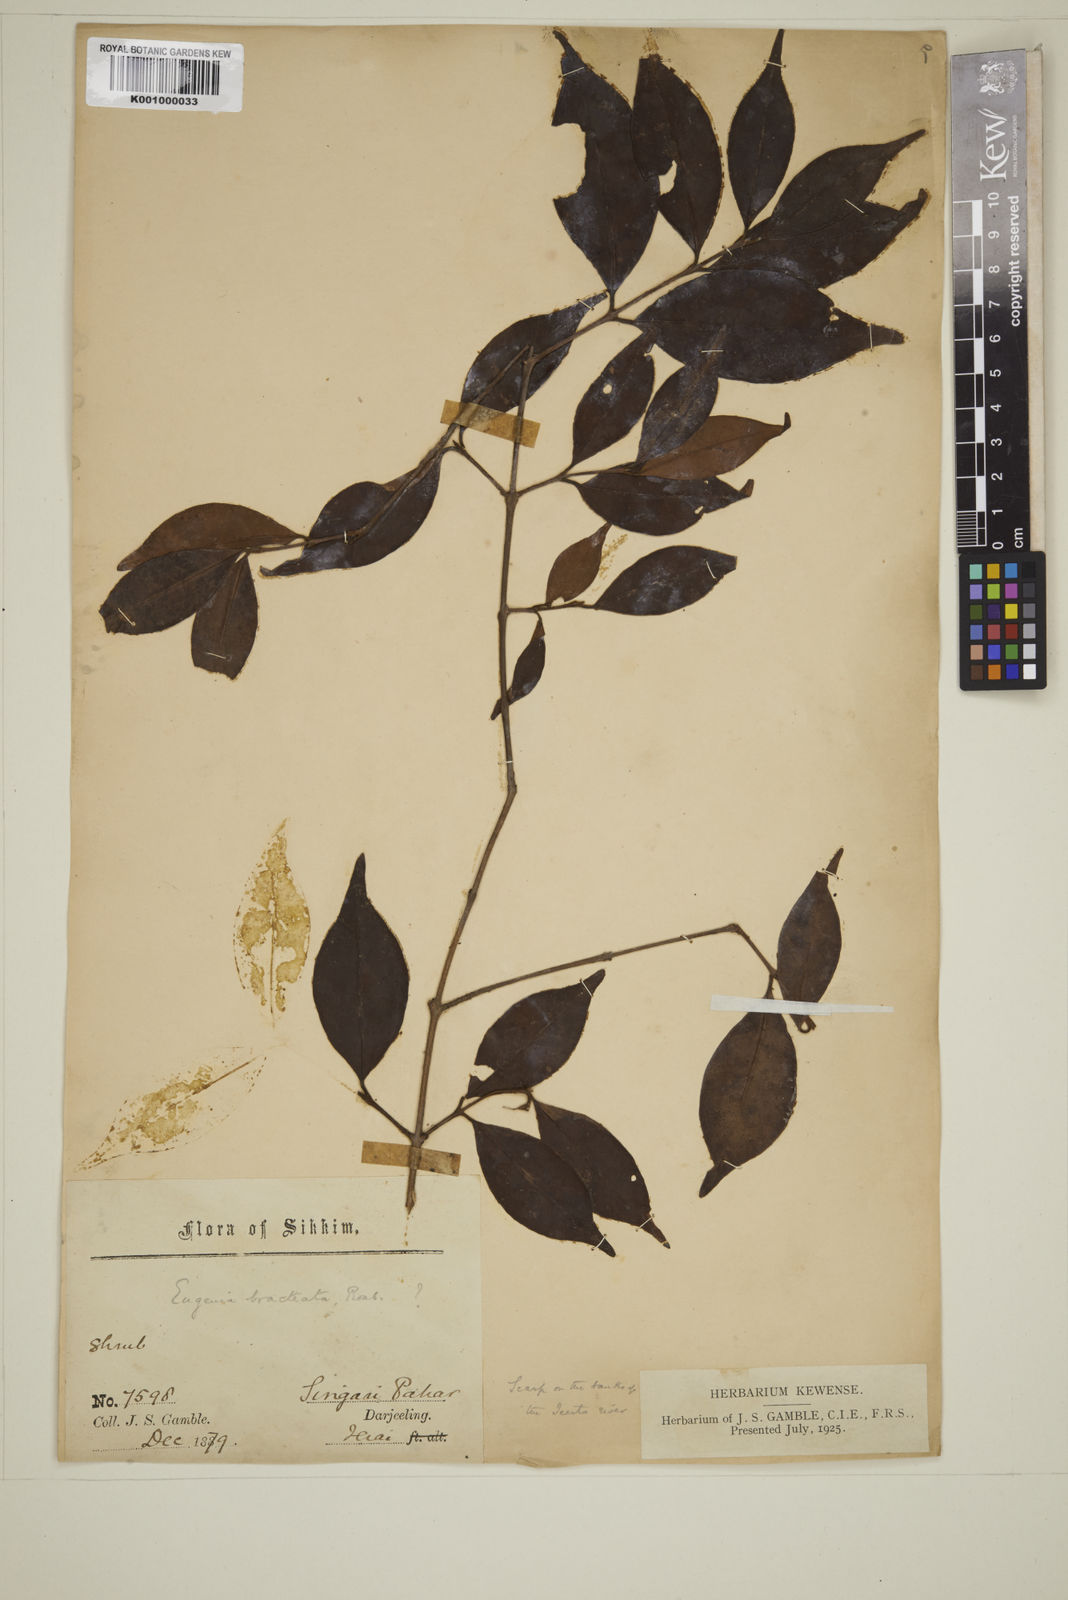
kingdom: Plantae
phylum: Tracheophyta
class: Magnoliopsida
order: Myrtales
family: Myrtaceae
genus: Myrcia
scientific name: Myrcia bracteata
